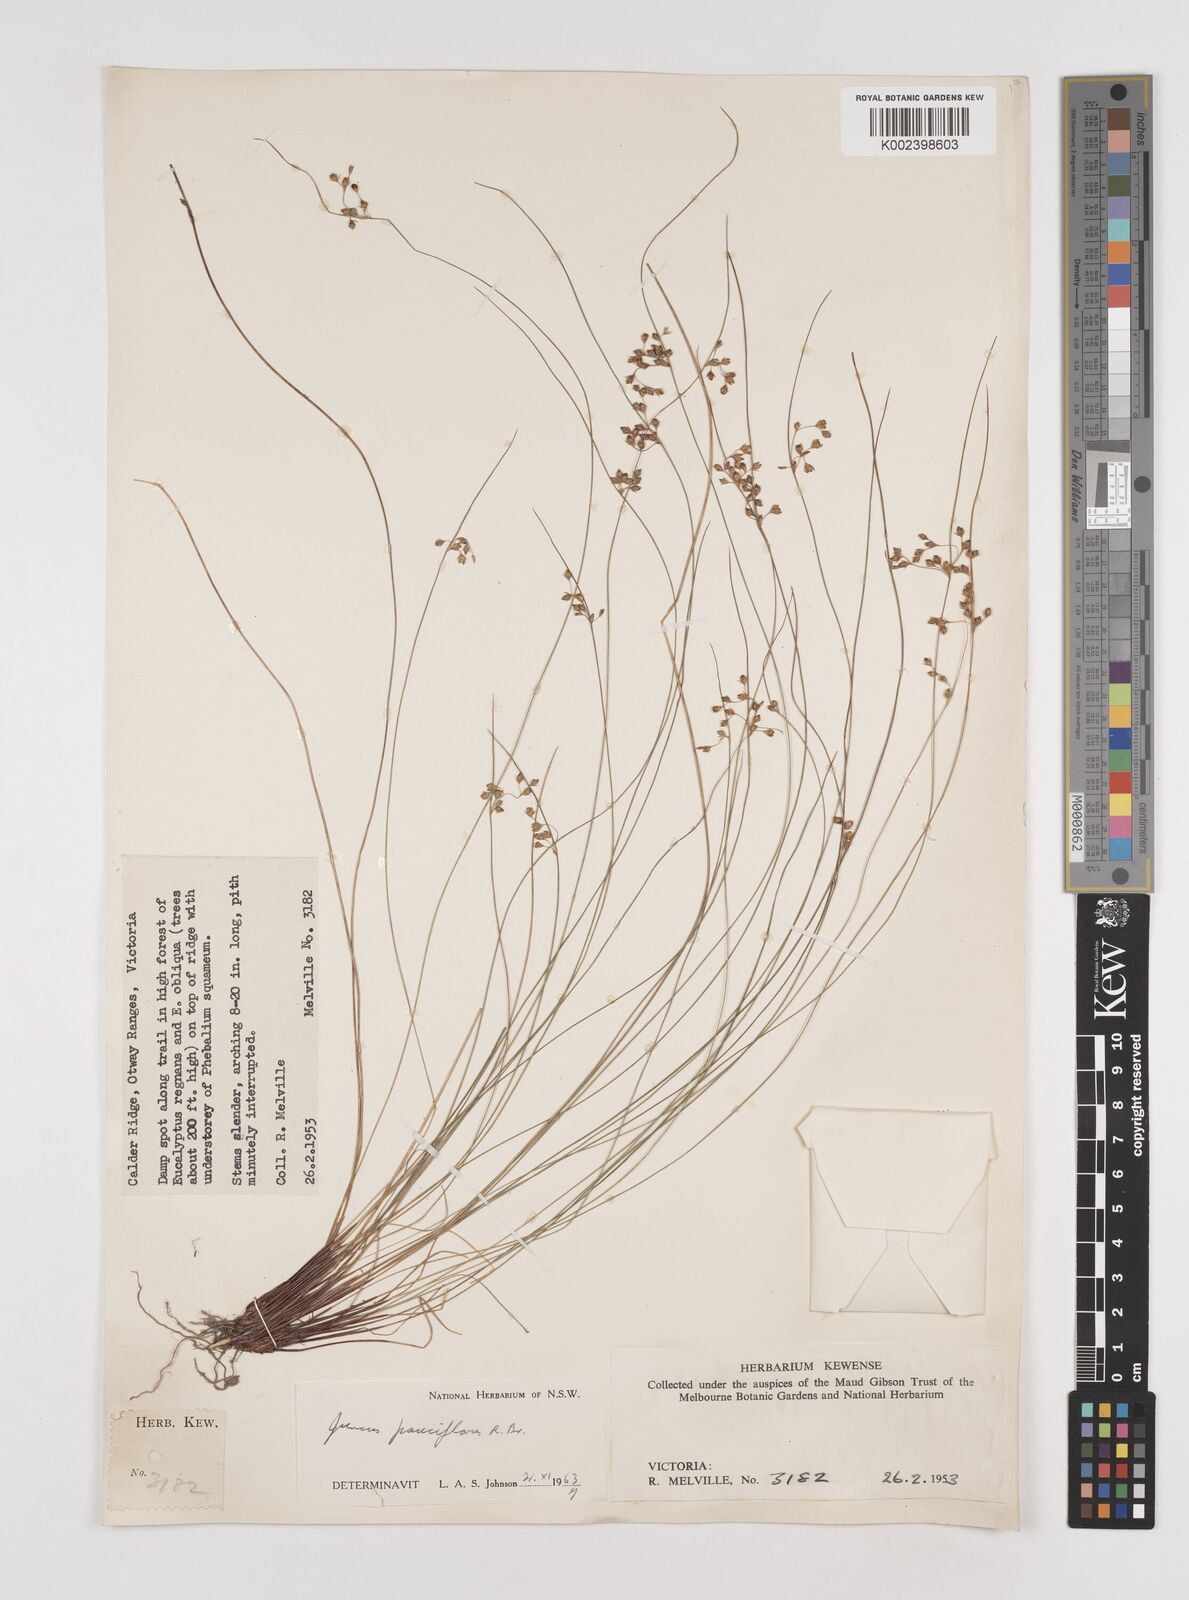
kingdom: Plantae
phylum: Tracheophyta
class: Liliopsida
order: Poales
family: Juncaceae
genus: Juncus
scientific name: Juncus pauciflorus
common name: Loose-flowered rush
